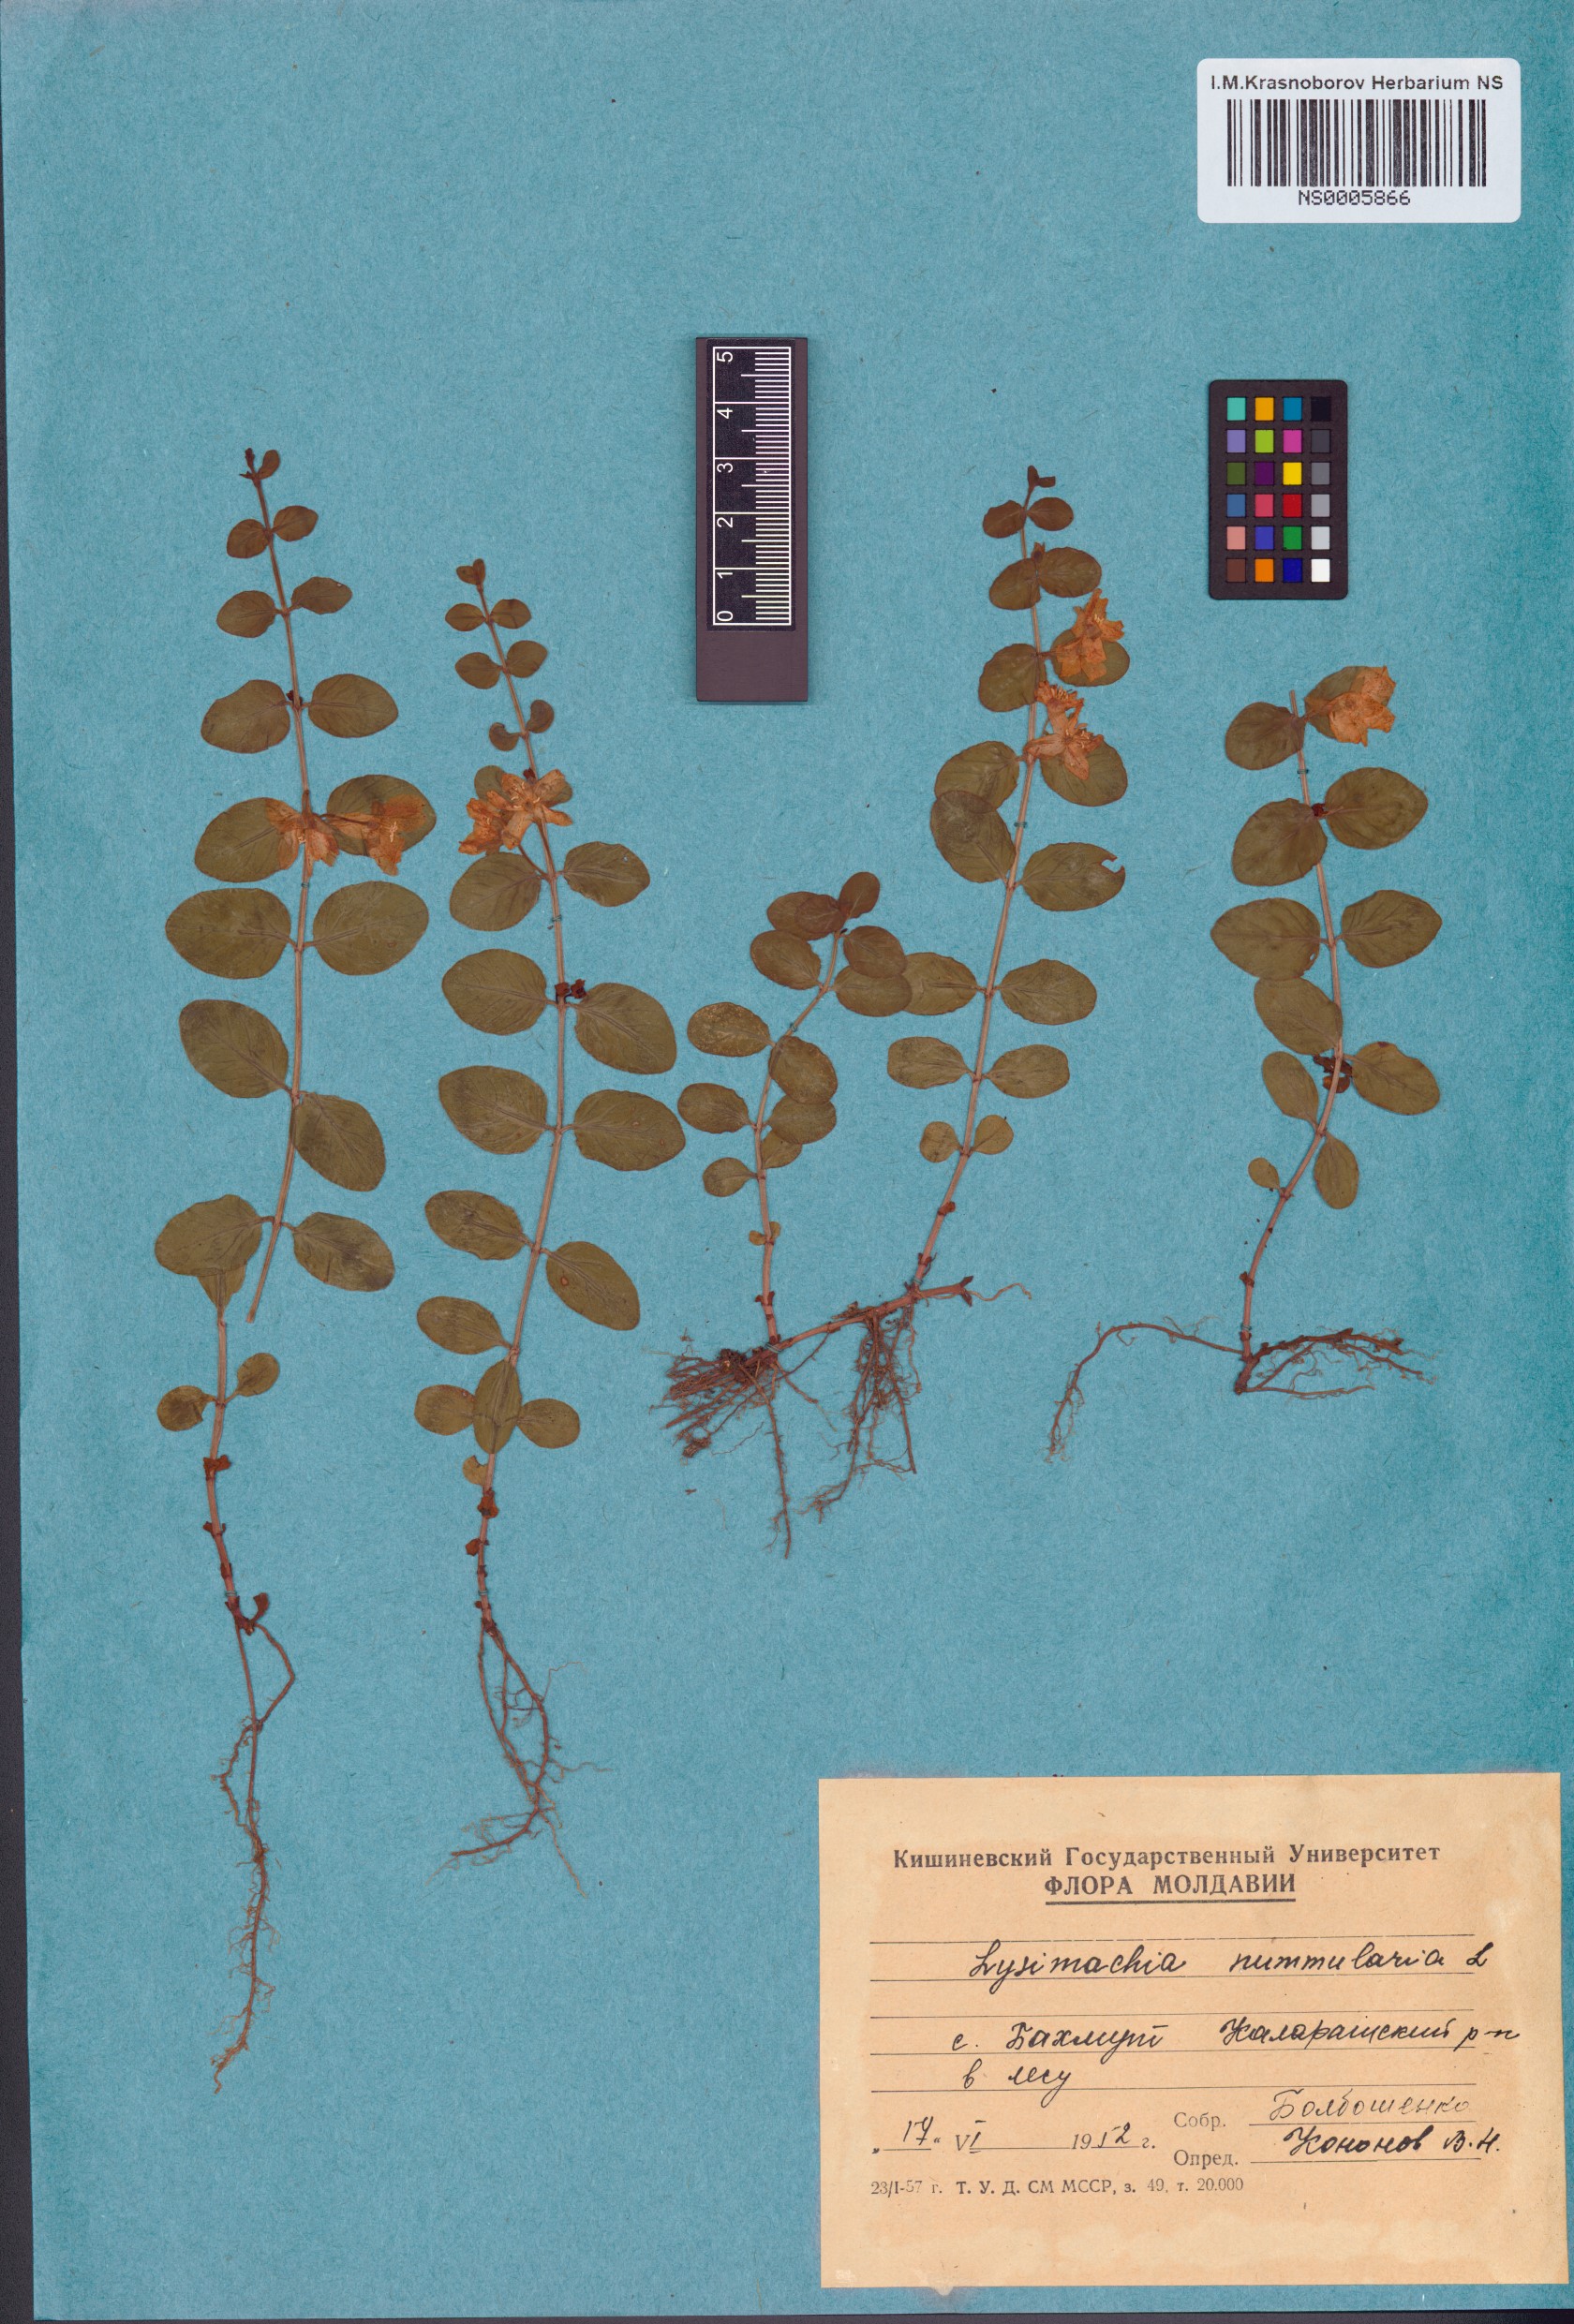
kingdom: Plantae
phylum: Tracheophyta
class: Magnoliopsida
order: Ericales
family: Primulaceae
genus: Lysimachia
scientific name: Lysimachia nummularia
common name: Moneywort
